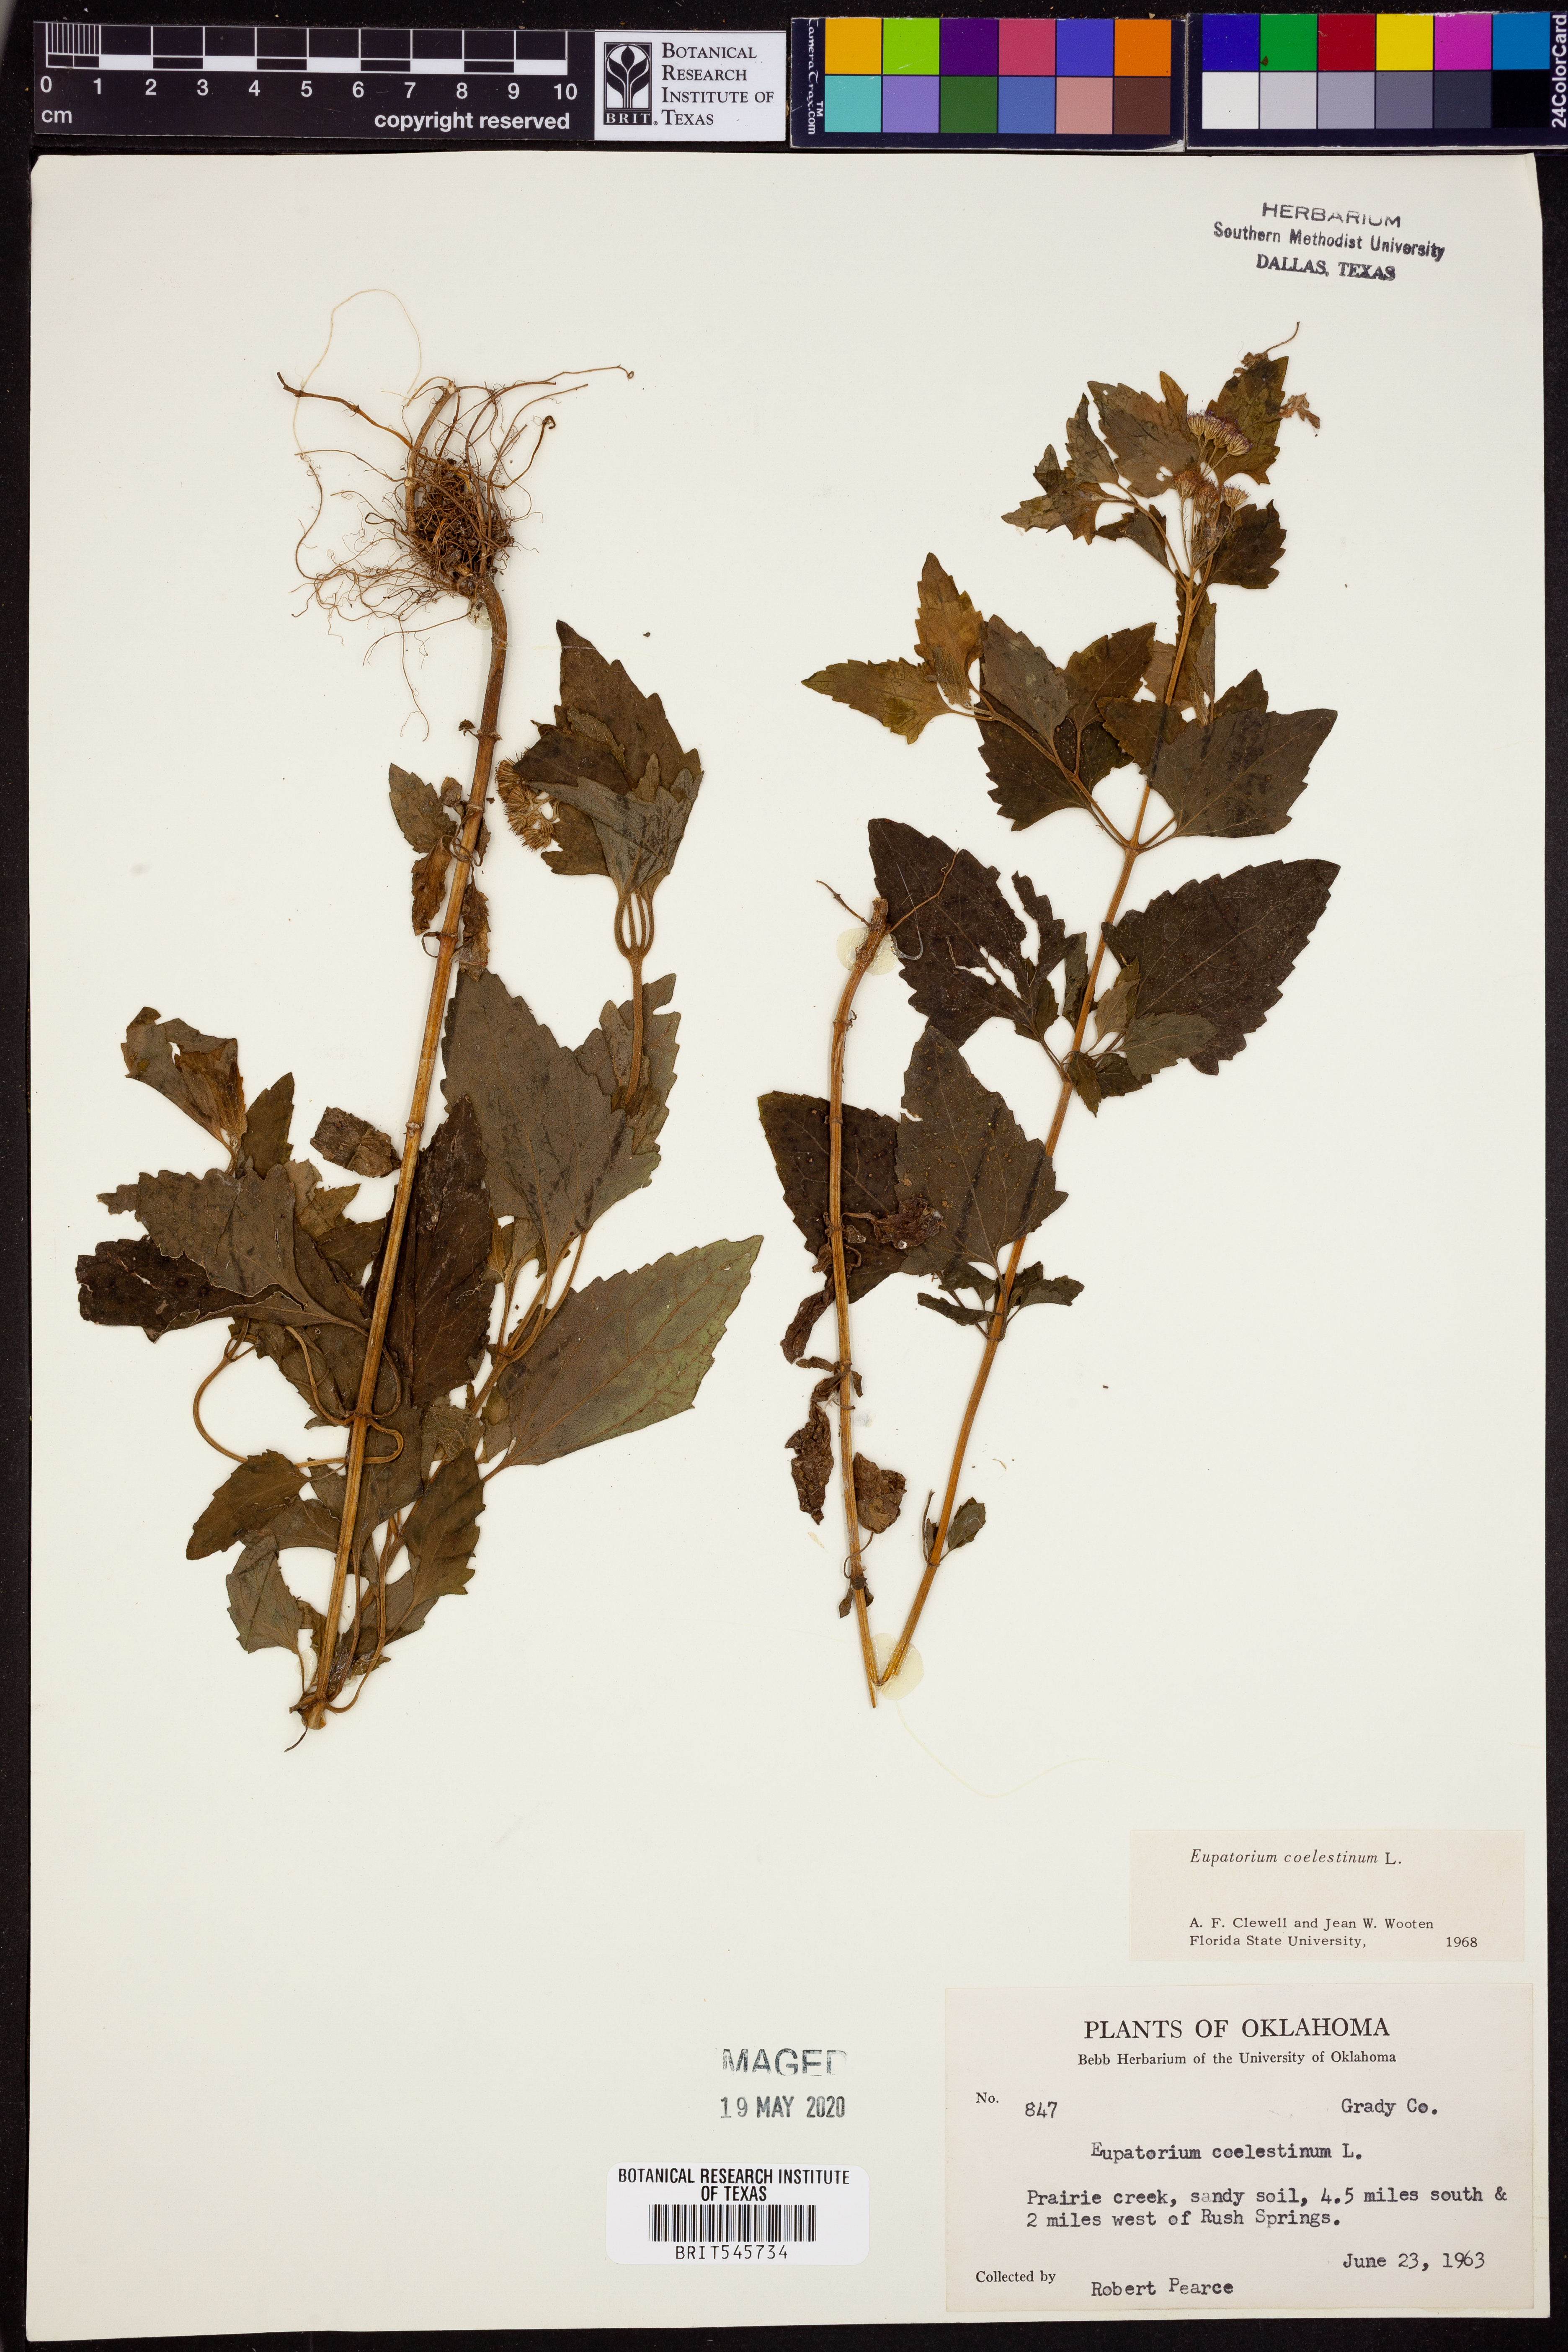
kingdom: Plantae
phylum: Tracheophyta
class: Magnoliopsida
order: Asterales
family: Asteraceae
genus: Conoclinium
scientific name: Conoclinium coelestinum
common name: Blue mistflower
